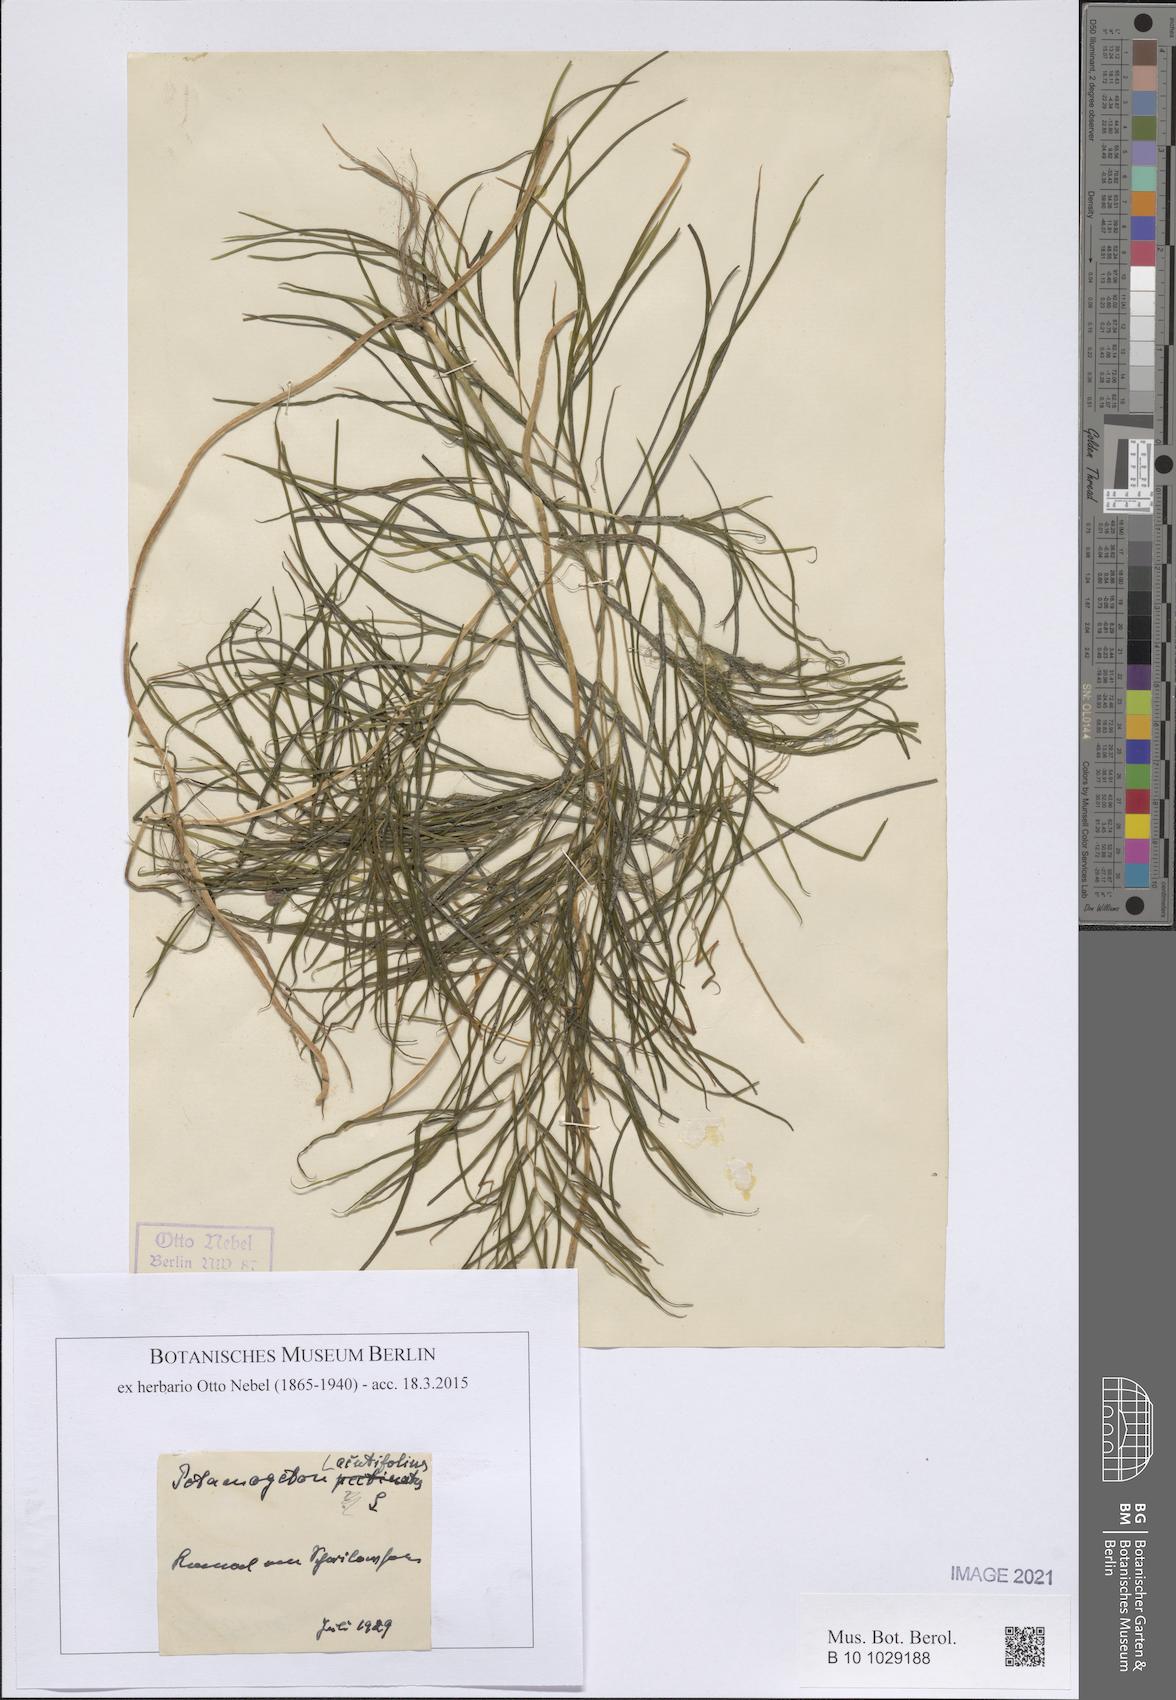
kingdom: Plantae
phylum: Tracheophyta
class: Liliopsida
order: Alismatales
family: Potamogetonaceae
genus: Potamogeton
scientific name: Potamogeton acutifolius
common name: Sharp-leaved pondweed
